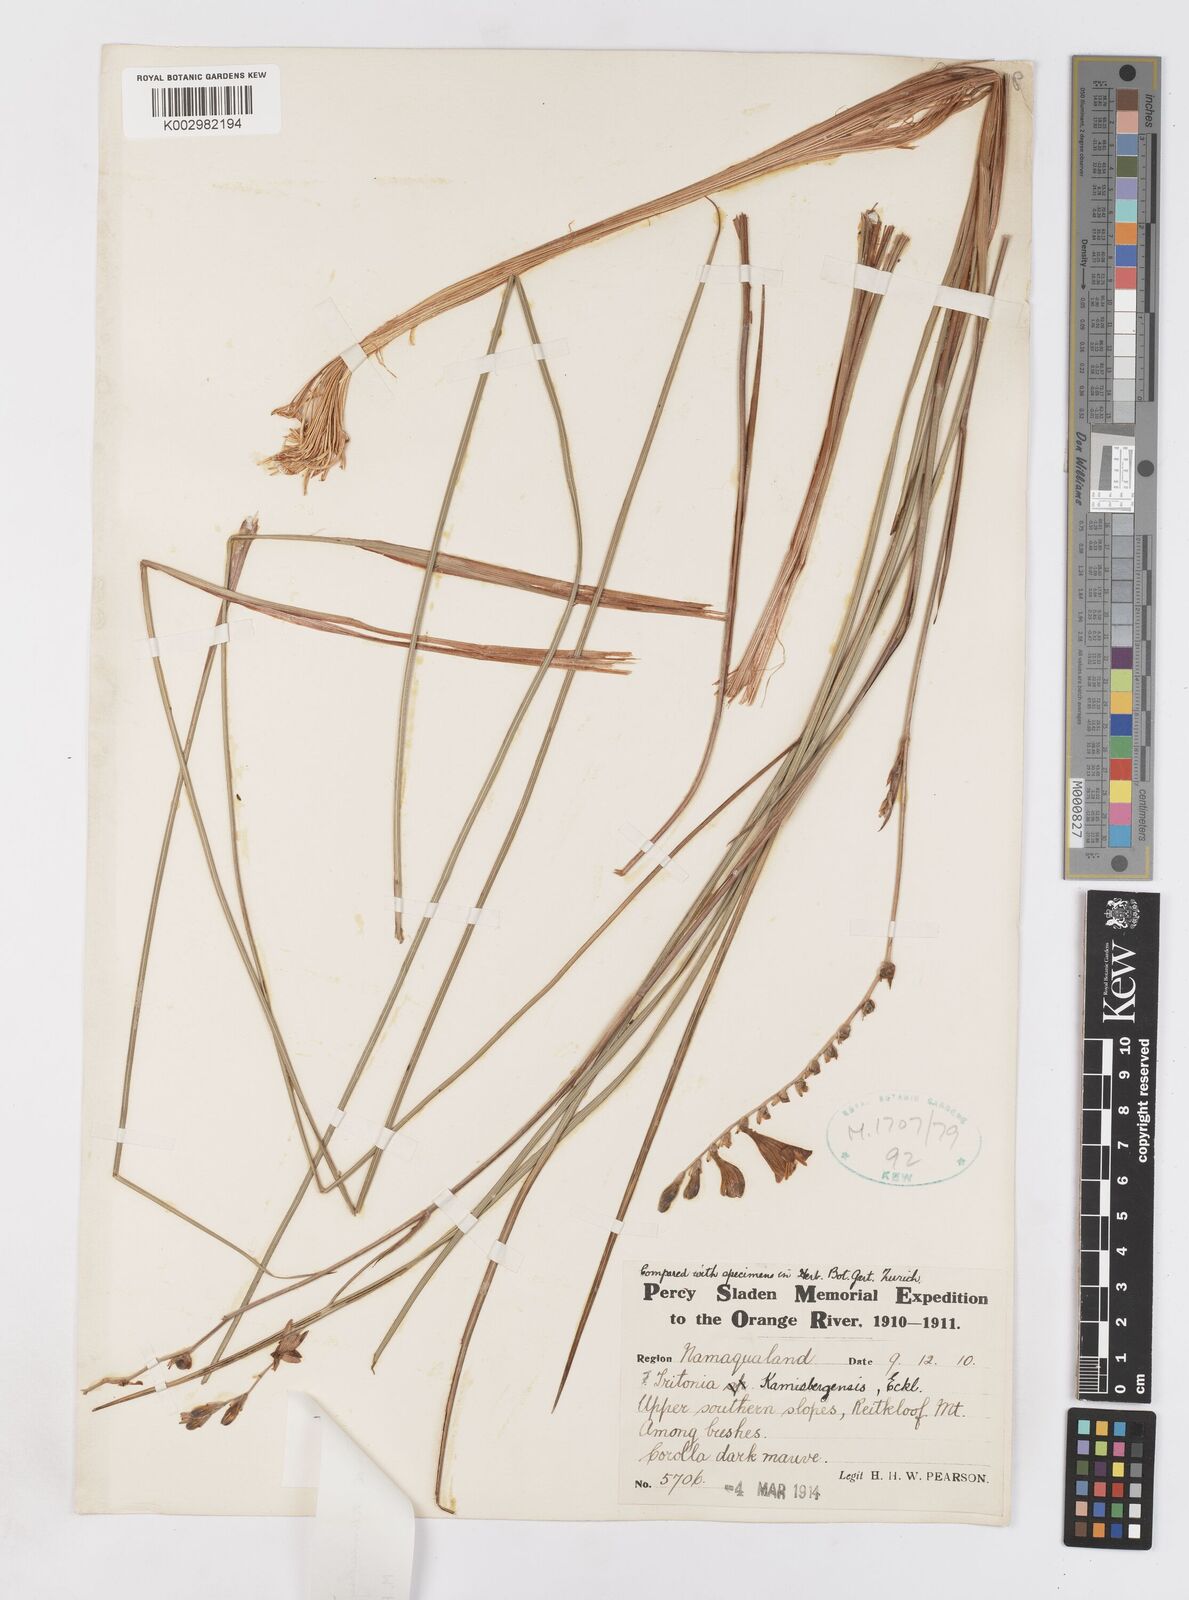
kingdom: Plantae
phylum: Tracheophyta
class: Liliopsida
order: Asparagales
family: Iridaceae
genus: Tritonia
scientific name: Tritonia kamisbergensis
